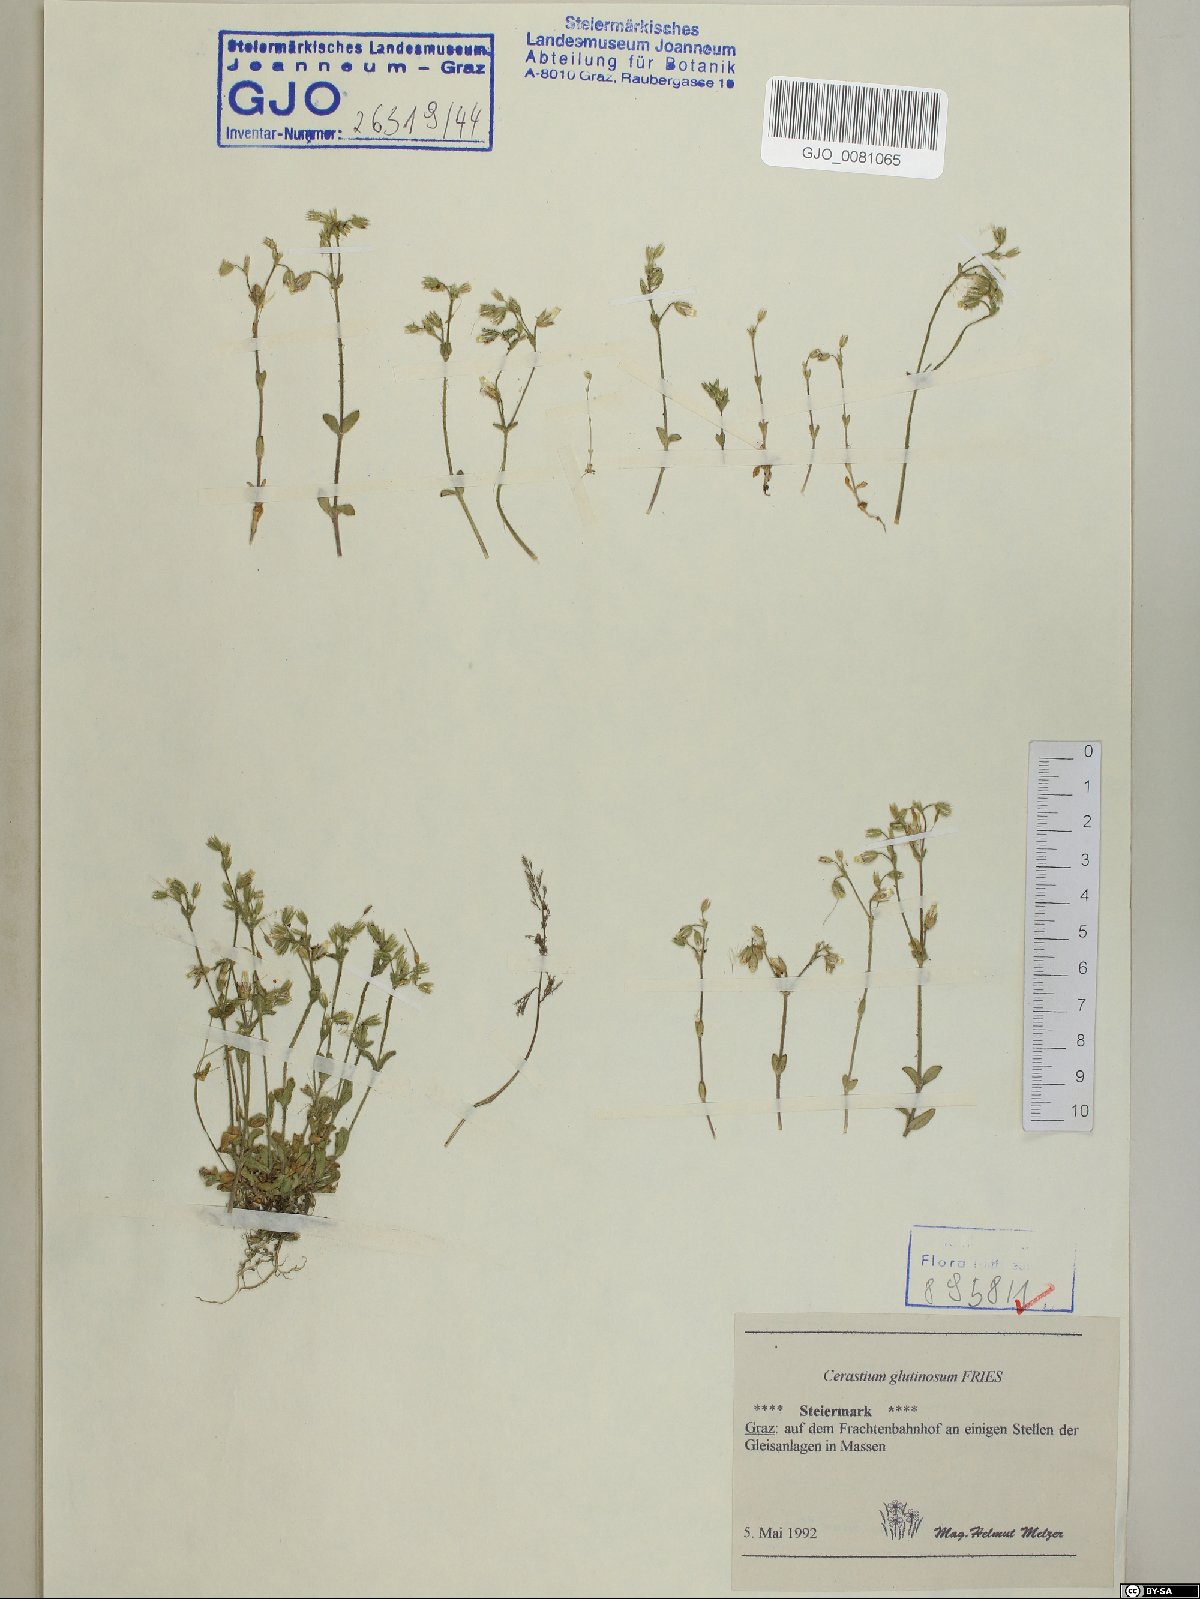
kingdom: Plantae
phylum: Tracheophyta
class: Magnoliopsida
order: Caryophyllales
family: Caryophyllaceae
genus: Cerastium
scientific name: Cerastium glutinosum
